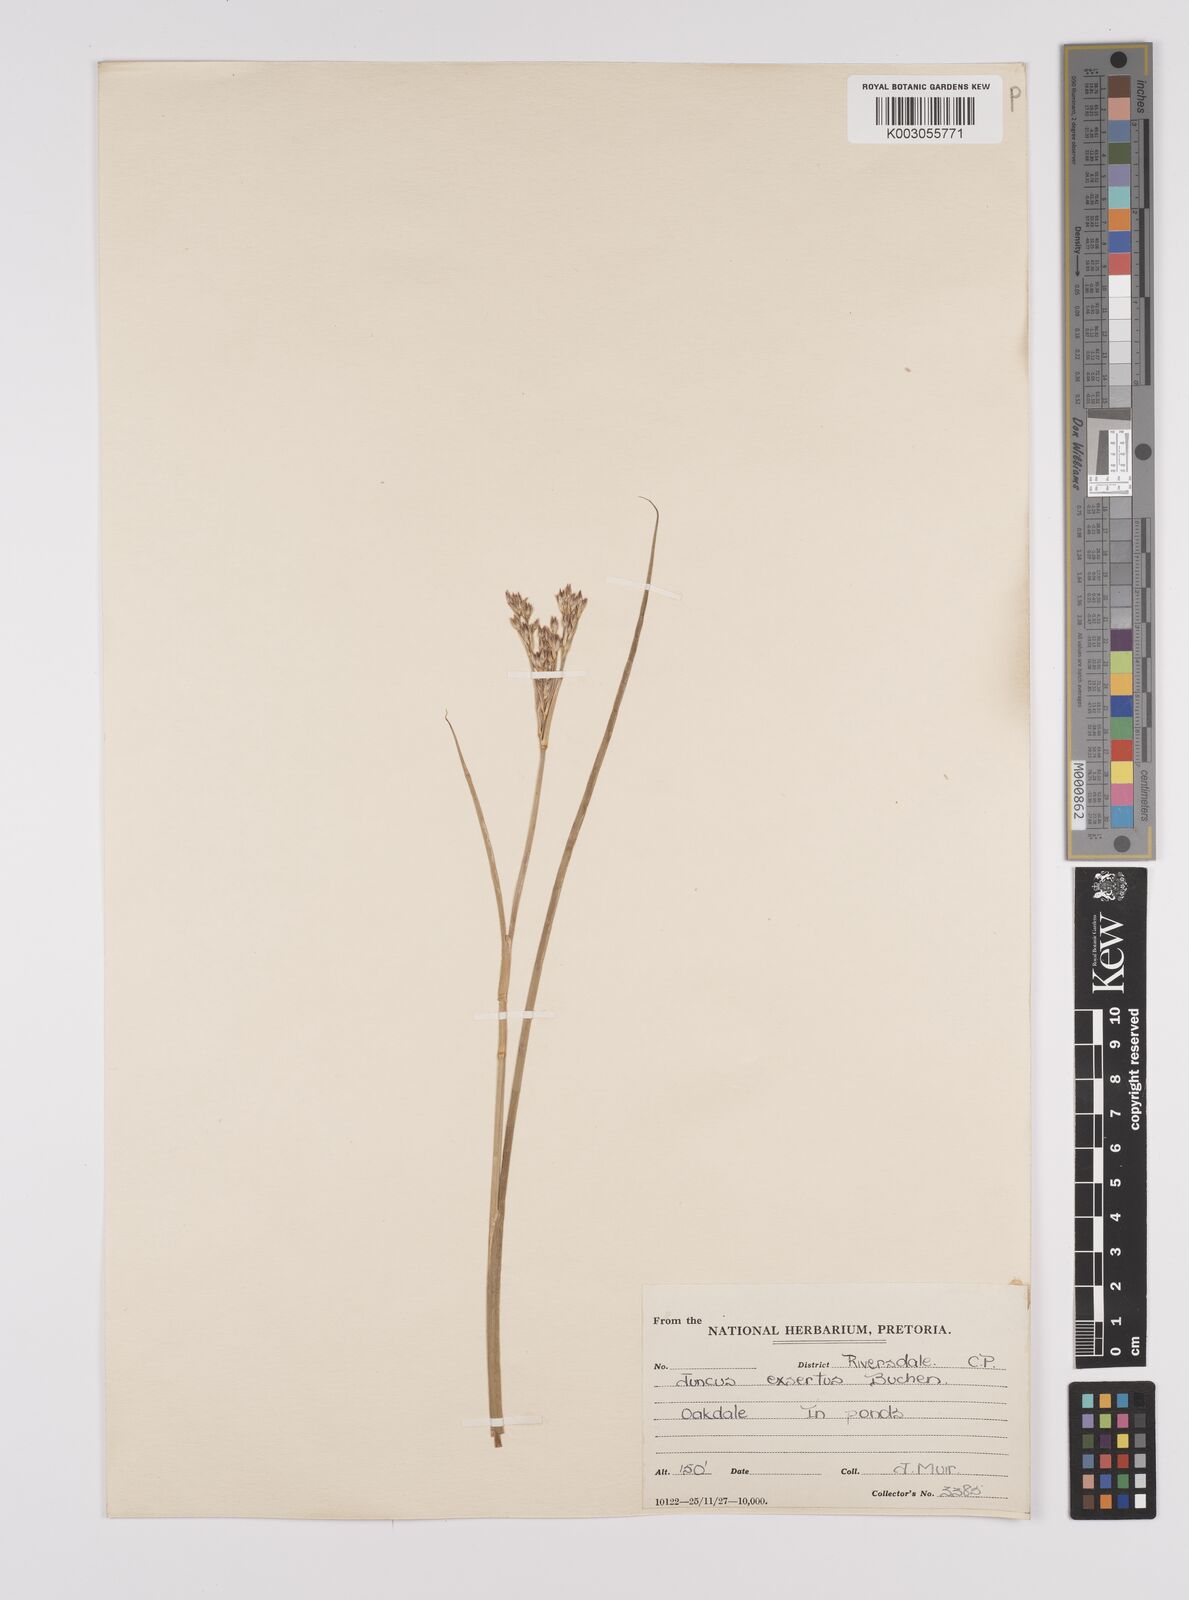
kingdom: Plantae
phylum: Tracheophyta
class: Liliopsida
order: Poales
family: Juncaceae
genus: Juncus
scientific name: Juncus exsertus
